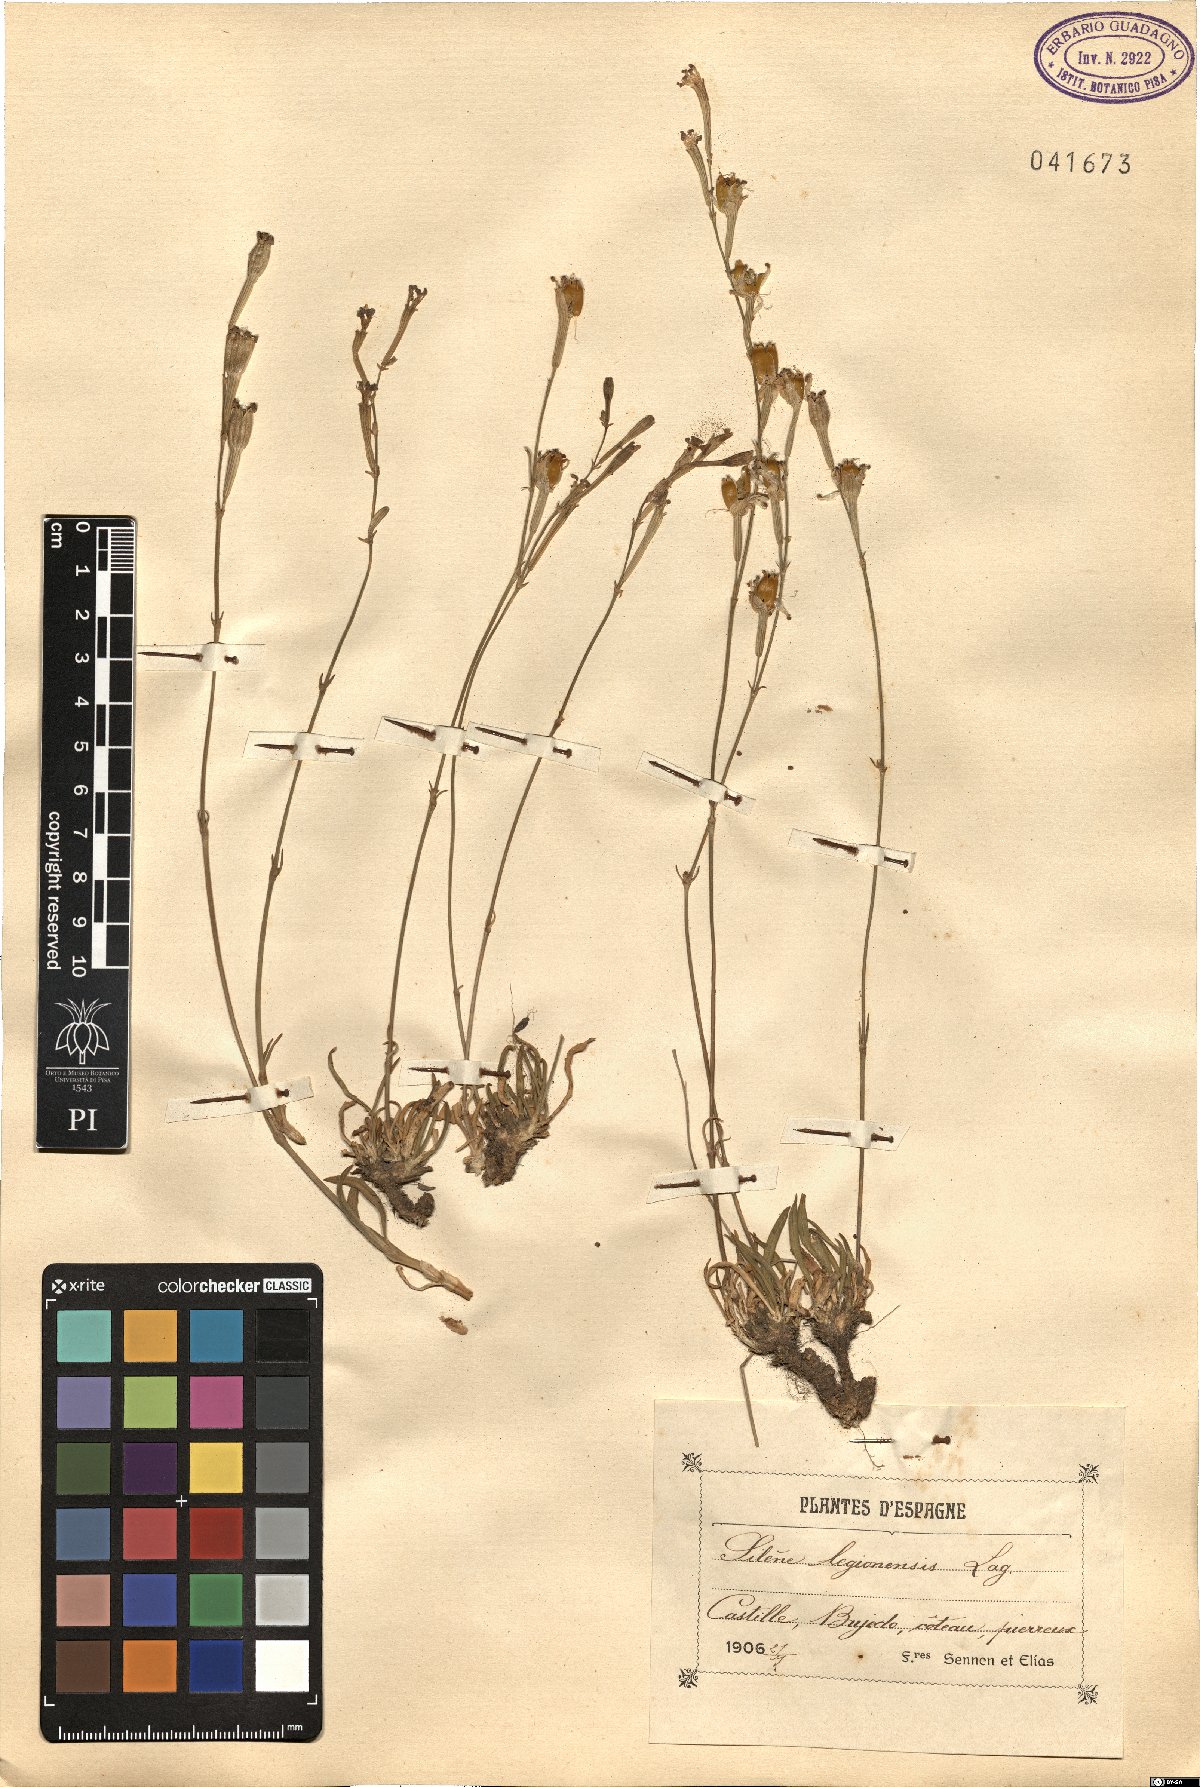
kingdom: Plantae
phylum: Tracheophyta
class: Magnoliopsida
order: Caryophyllales
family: Caryophyllaceae
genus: Silene
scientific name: Silene legionensis
